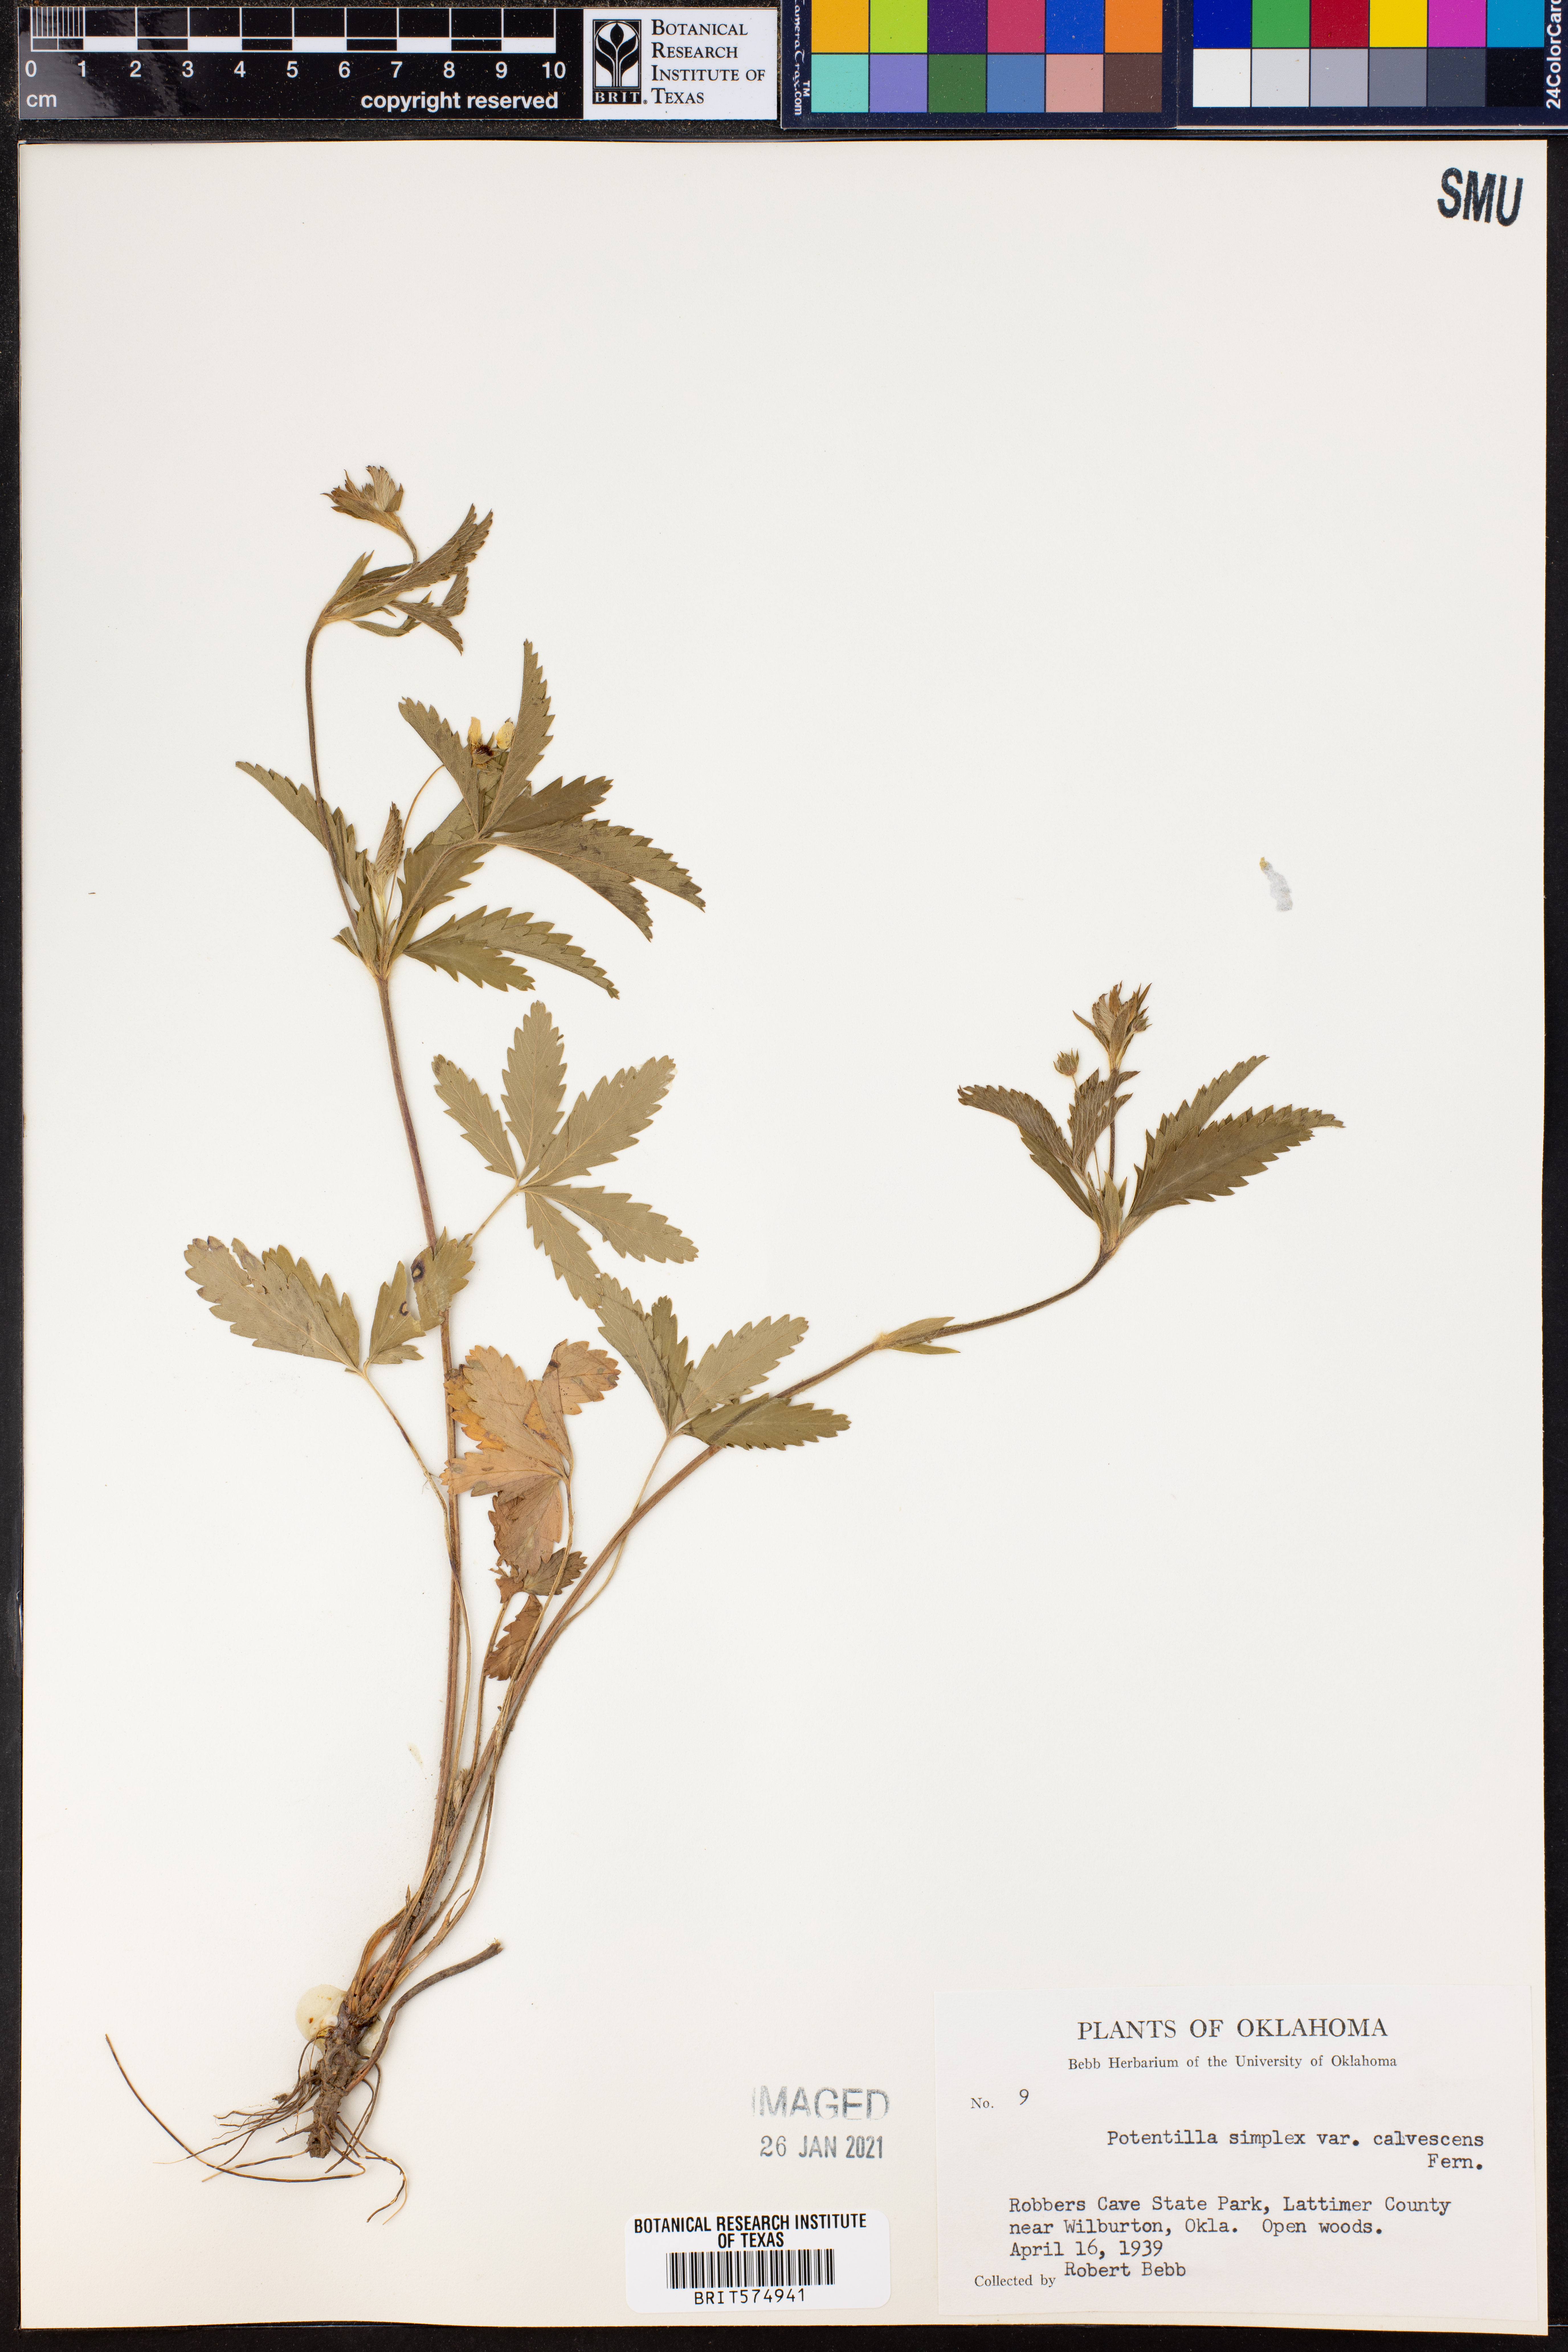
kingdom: Plantae
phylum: Tracheophyta
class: Magnoliopsida
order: Rosales
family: Rosaceae
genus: Potentilla
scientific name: Potentilla simplex
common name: Old field cinquefoil
